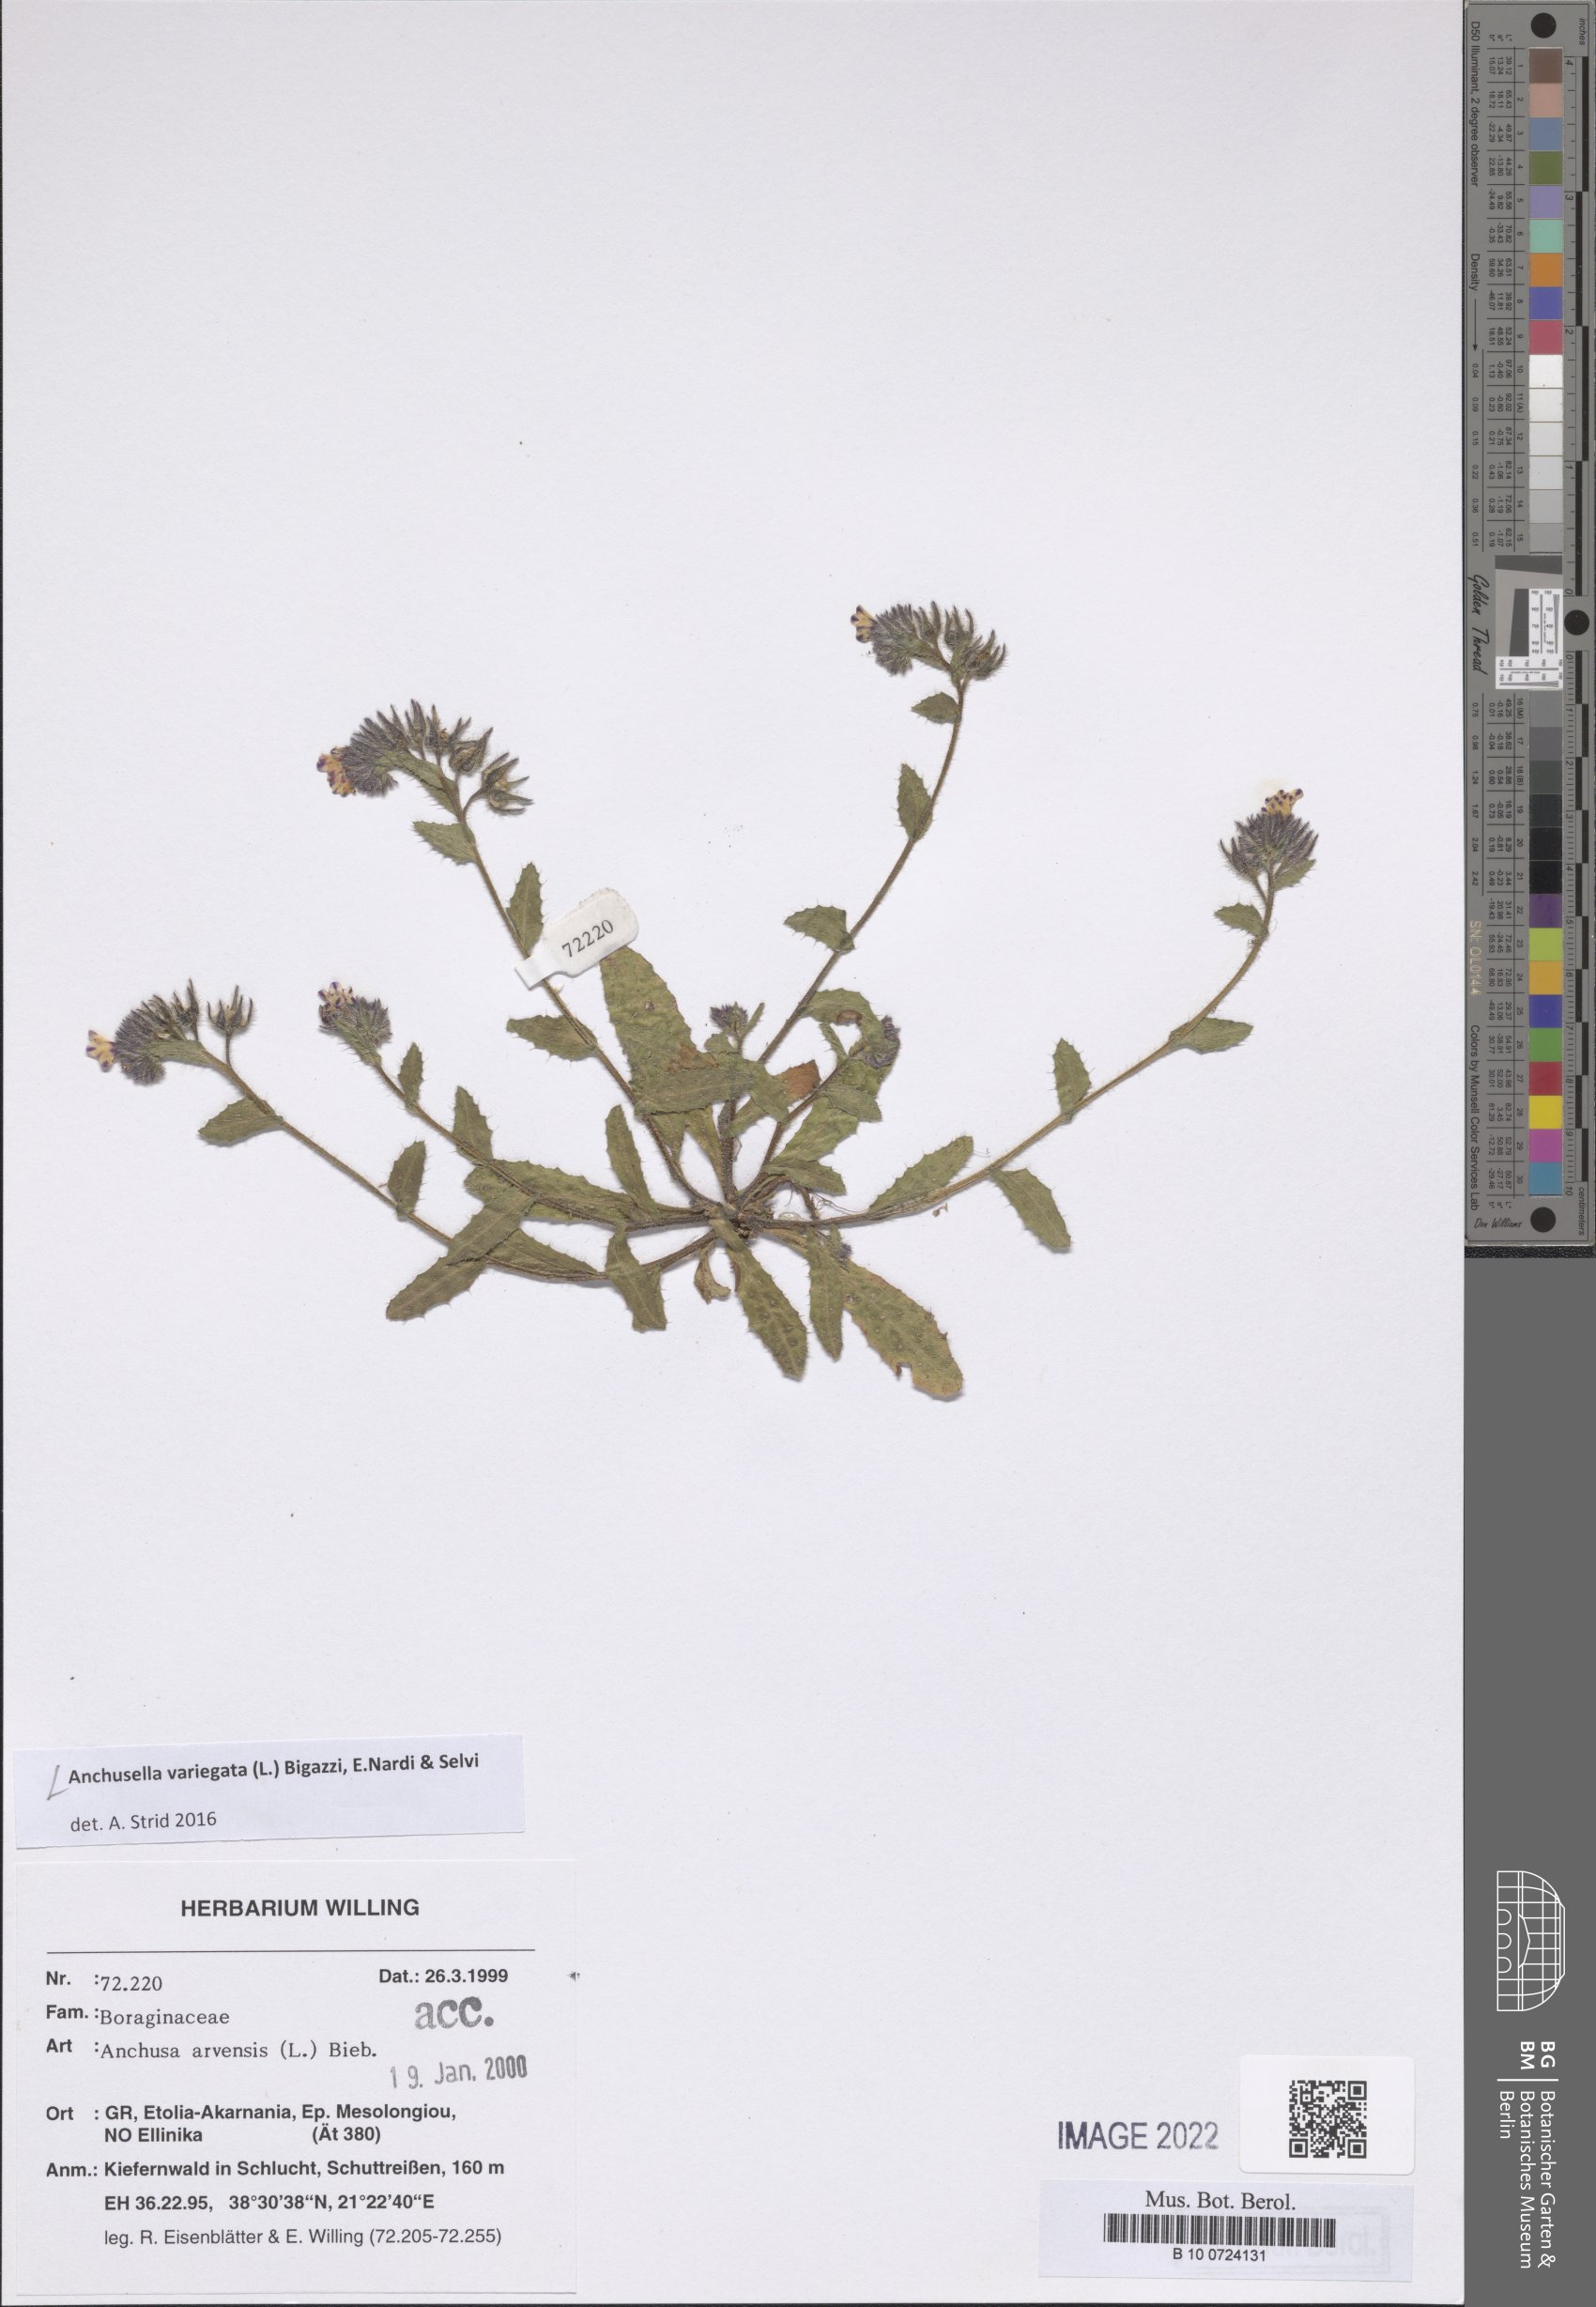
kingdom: Plantae
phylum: Tracheophyta
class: Magnoliopsida
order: Boraginales
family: Boraginaceae
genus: Anchusella
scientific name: Anchusella variegata
